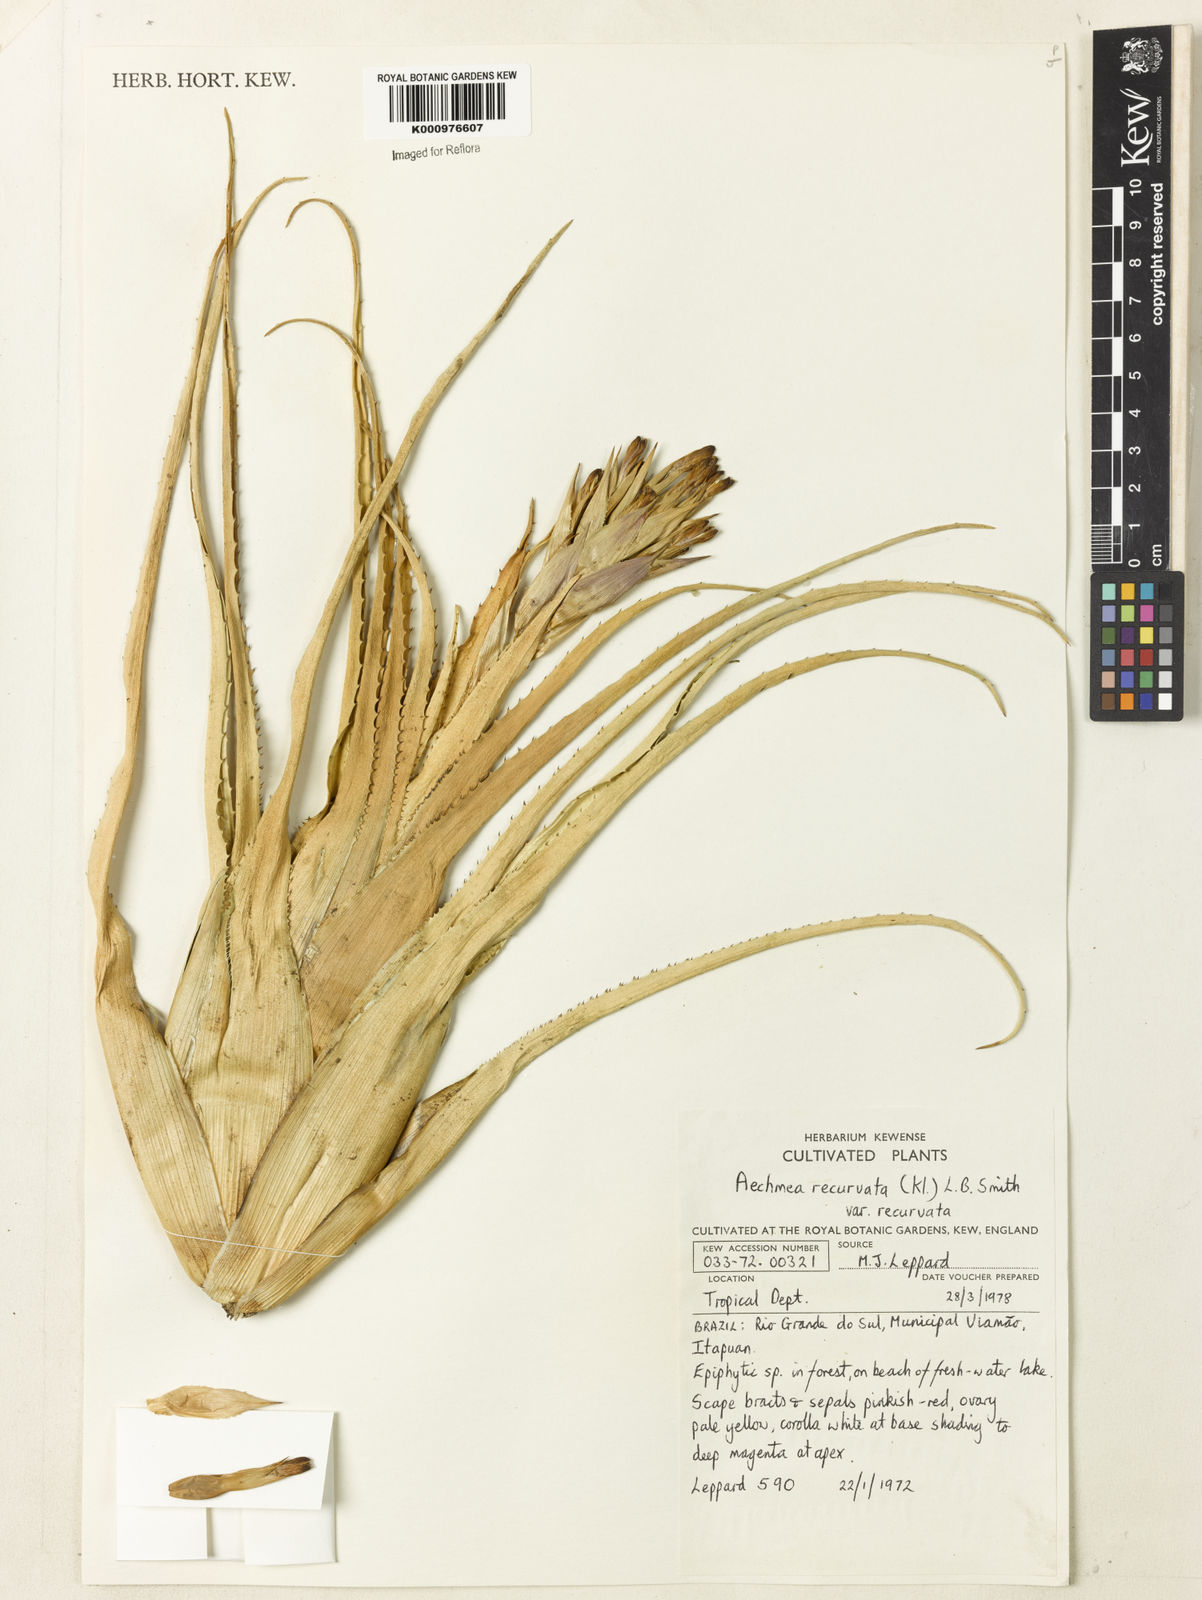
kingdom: Plantae
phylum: Tracheophyta
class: Liliopsida
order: Poales
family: Bromeliaceae
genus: Aechmea
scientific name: Aechmea recurvata
